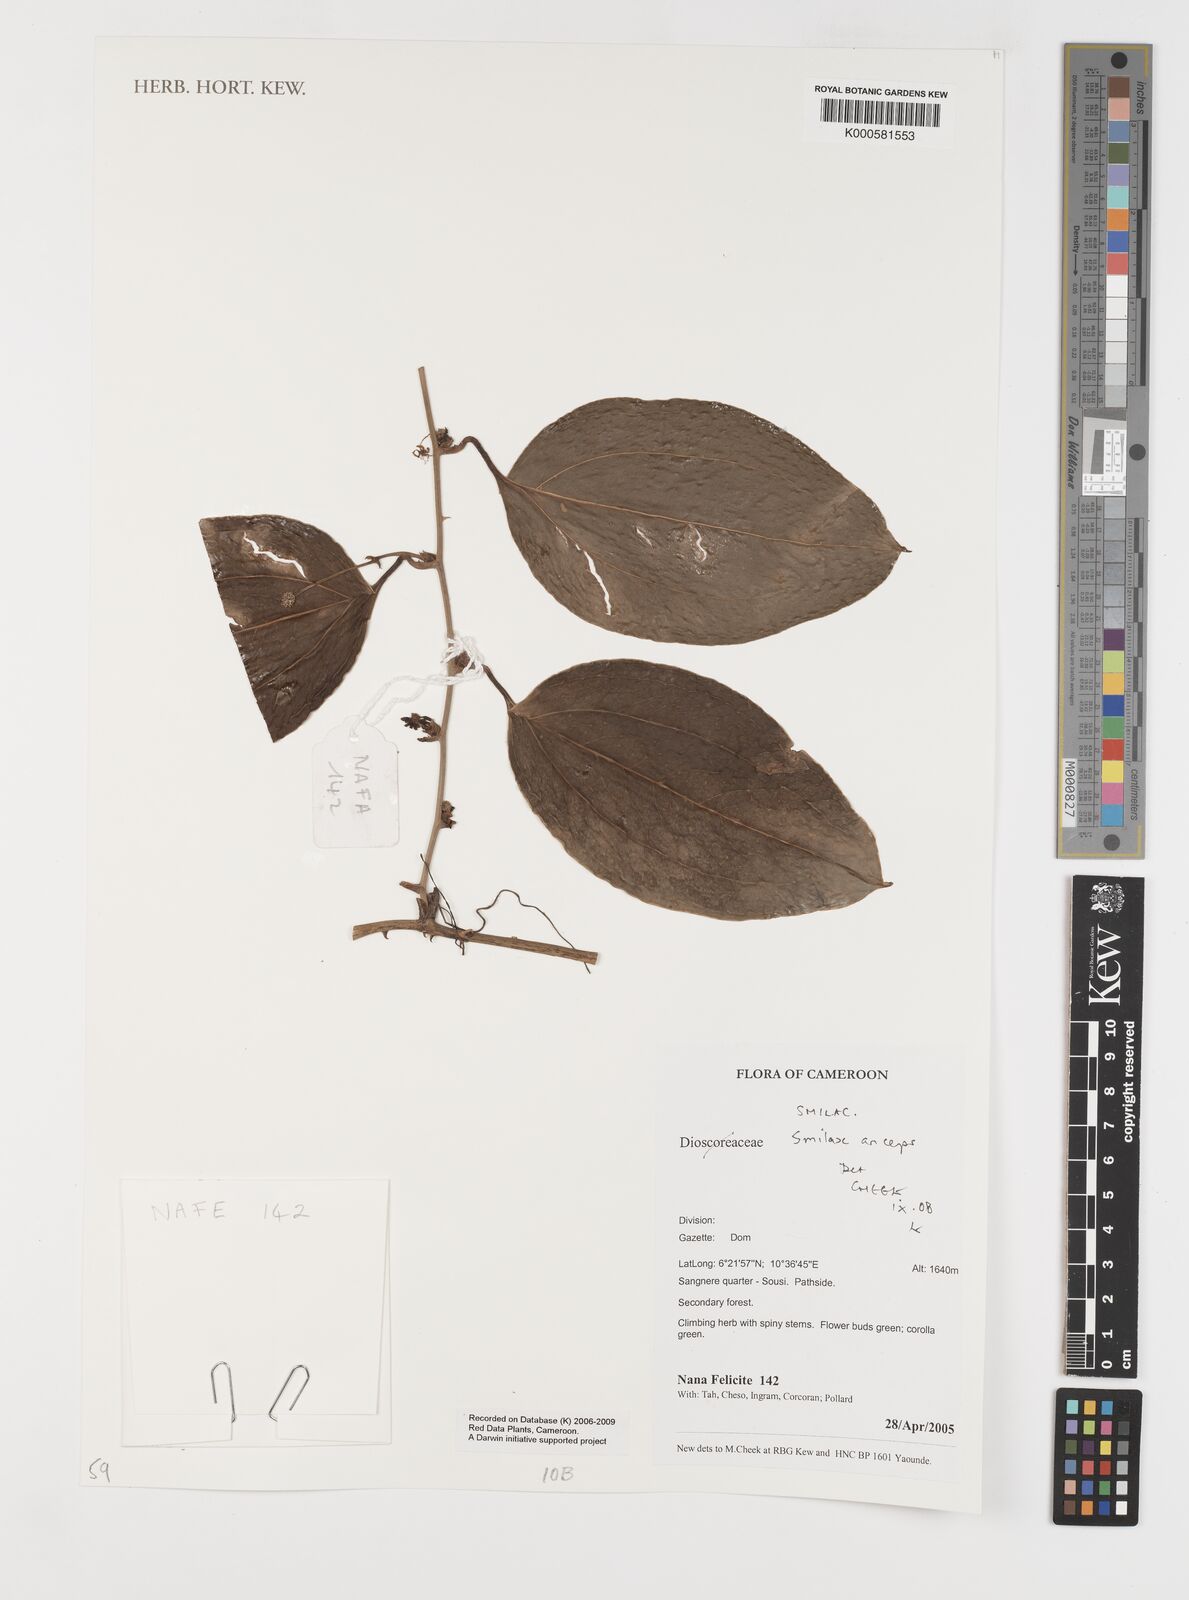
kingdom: Plantae
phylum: Tracheophyta
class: Liliopsida
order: Liliales
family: Smilacaceae
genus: Smilax
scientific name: Smilax anceps
